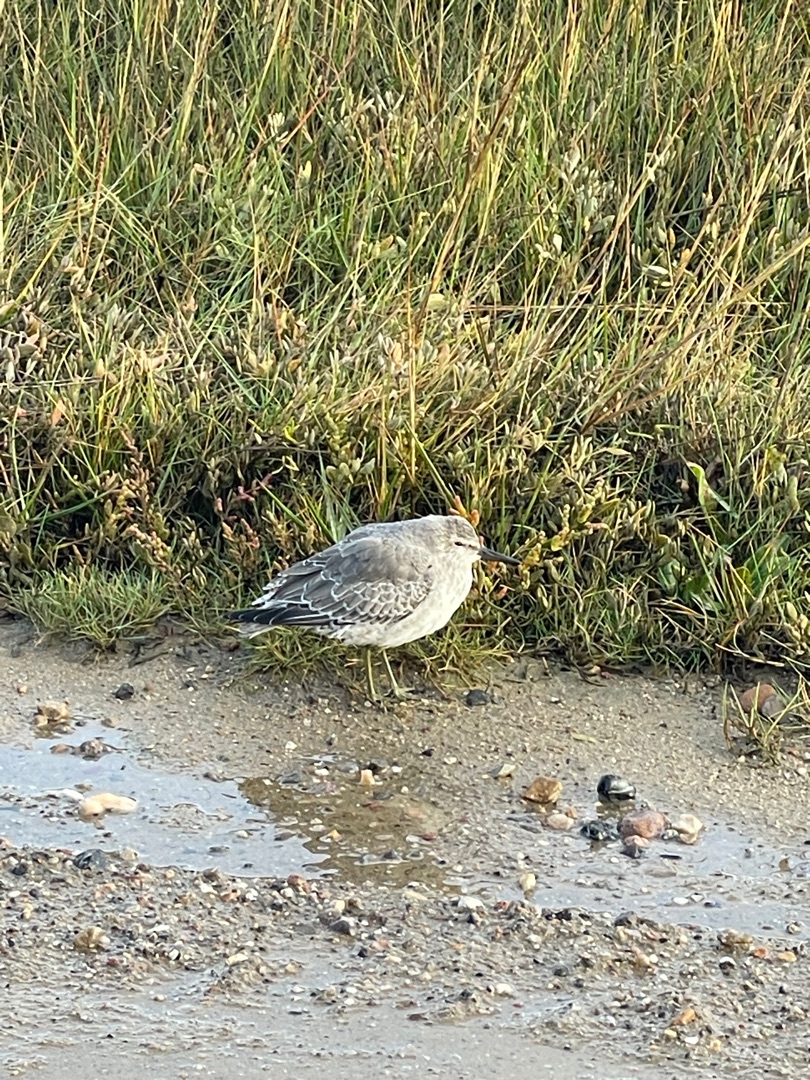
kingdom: Animalia
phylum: Chordata
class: Aves
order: Charadriiformes
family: Scolopacidae
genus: Calidris
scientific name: Calidris canutus
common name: Islandsk ryle
